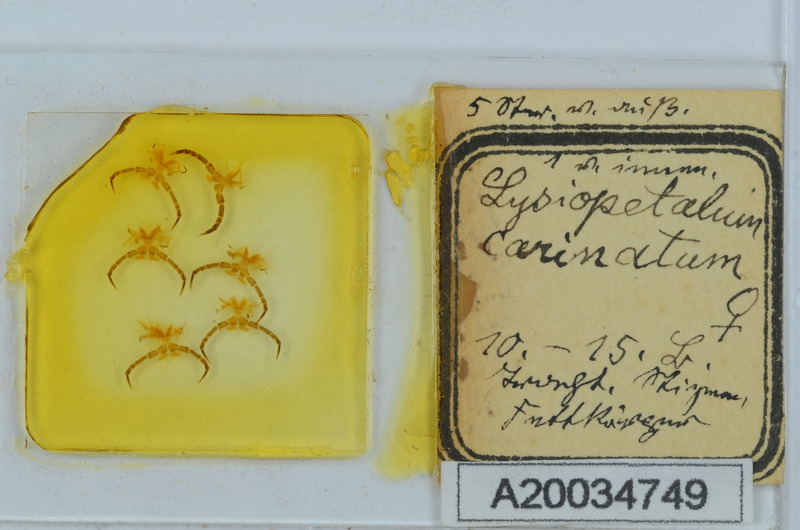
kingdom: Animalia
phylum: Arthropoda
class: Diplopoda
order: Callipodida
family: Schizopetalidae
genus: Acanthopetalum
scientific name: Acanthopetalum carinatum
